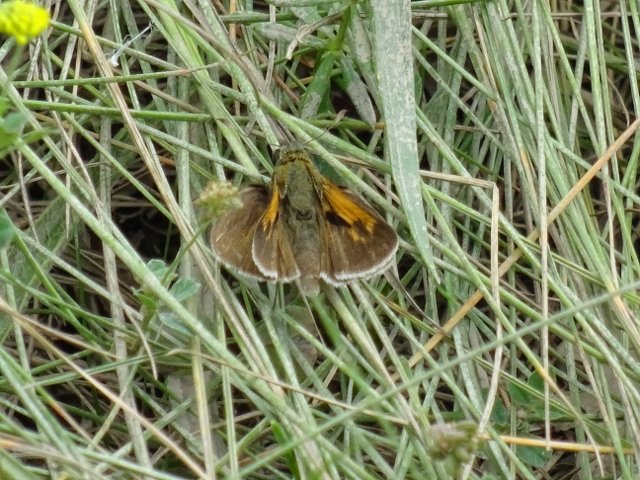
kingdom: Animalia
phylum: Arthropoda
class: Insecta
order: Lepidoptera
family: Hesperiidae
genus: Polites
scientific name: Polites
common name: Long Dash Skipper
